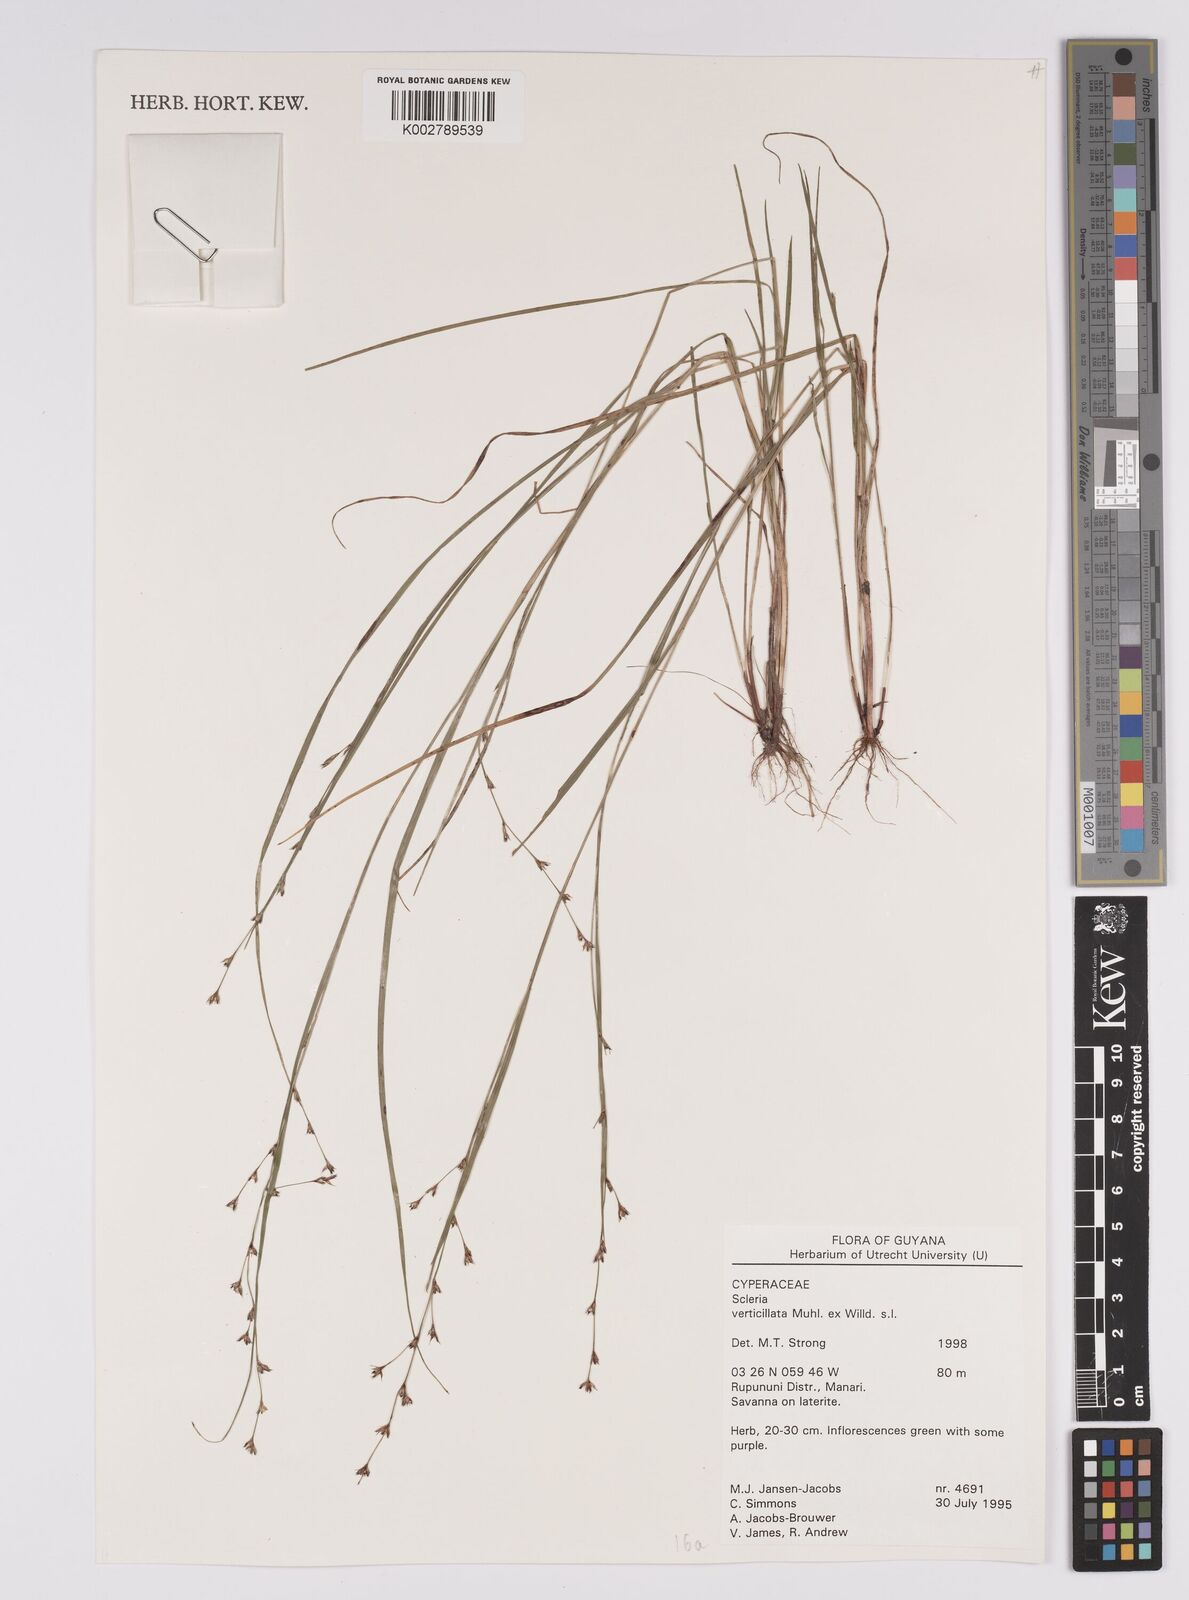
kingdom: Plantae
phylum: Tracheophyta
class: Liliopsida
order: Poales
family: Cyperaceae
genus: Scleria
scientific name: Scleria verticillata
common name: Low nutrush
